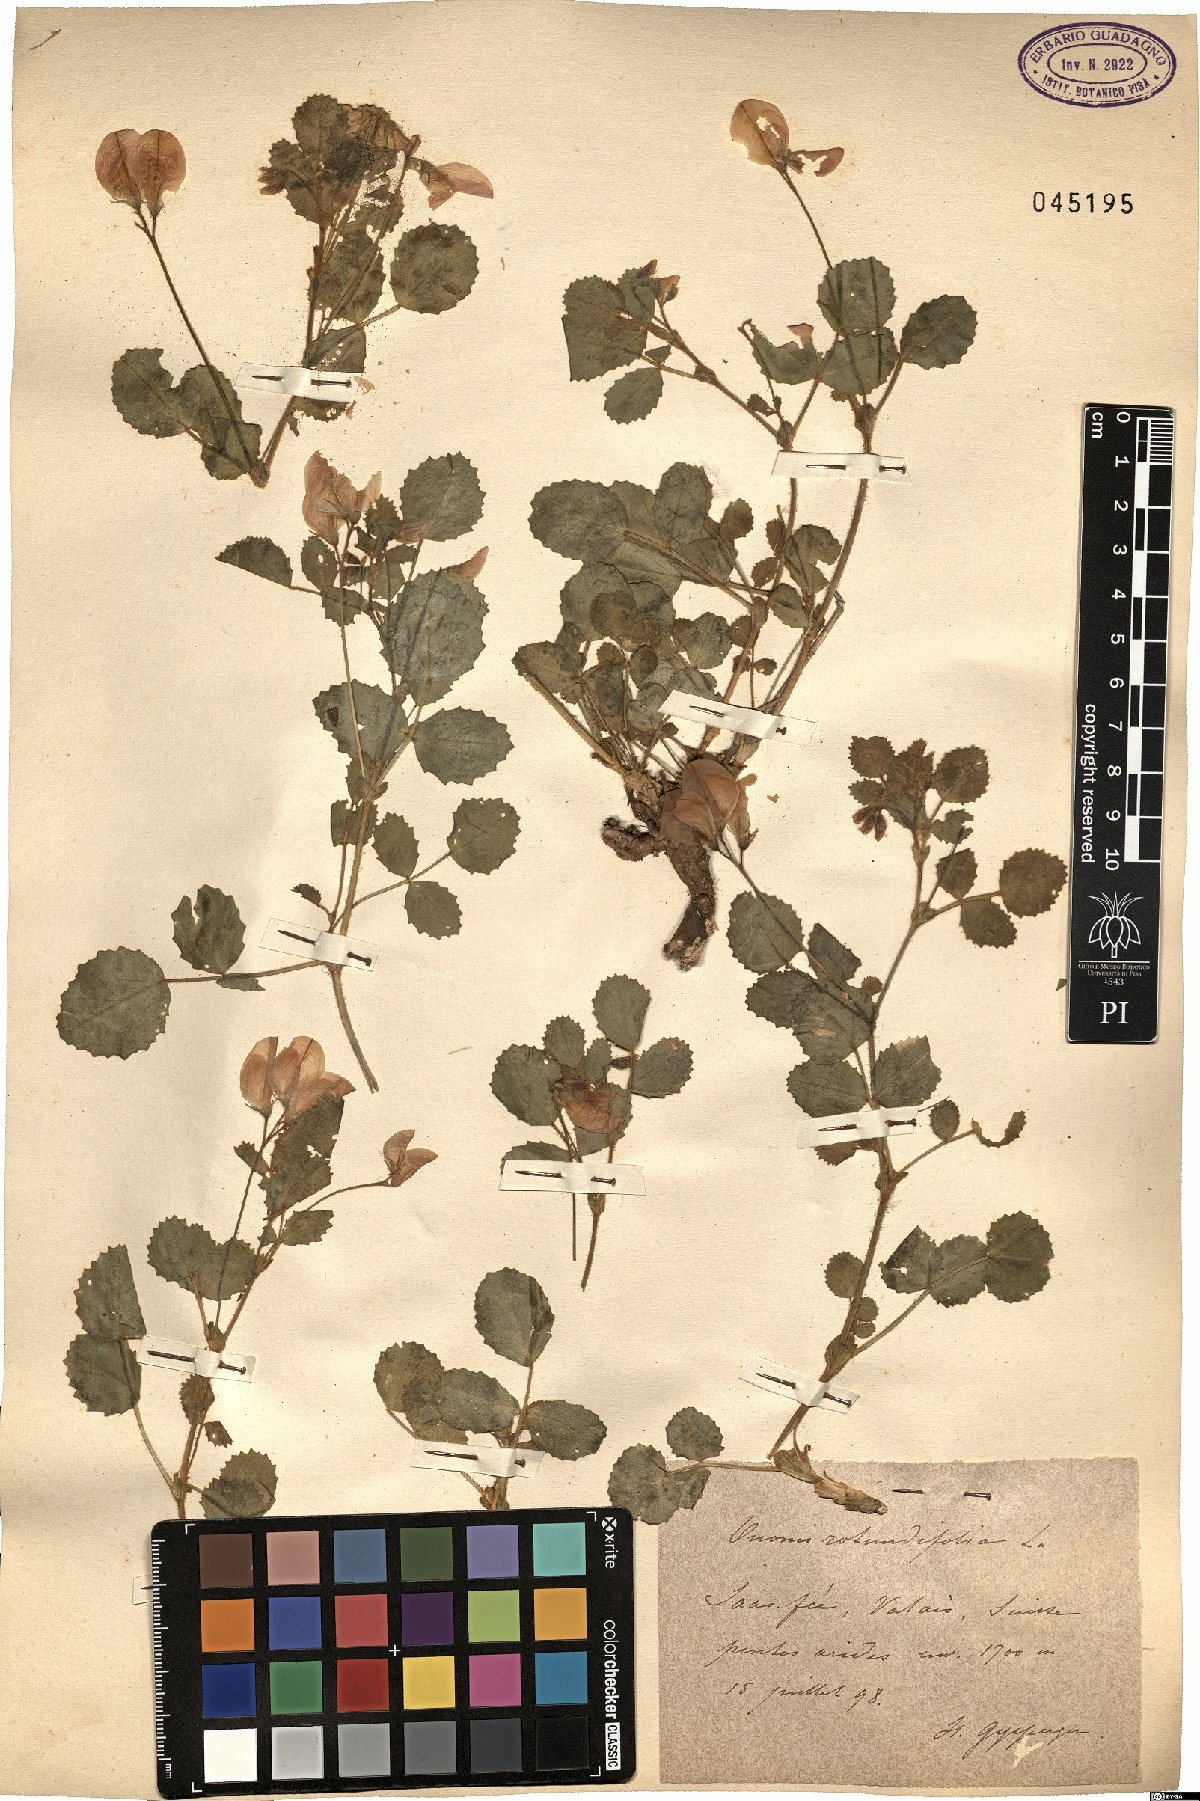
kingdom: Plantae
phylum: Tracheophyta
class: Magnoliopsida
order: Fabales
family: Fabaceae
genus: Ononis
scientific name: Ononis rotundifolia
